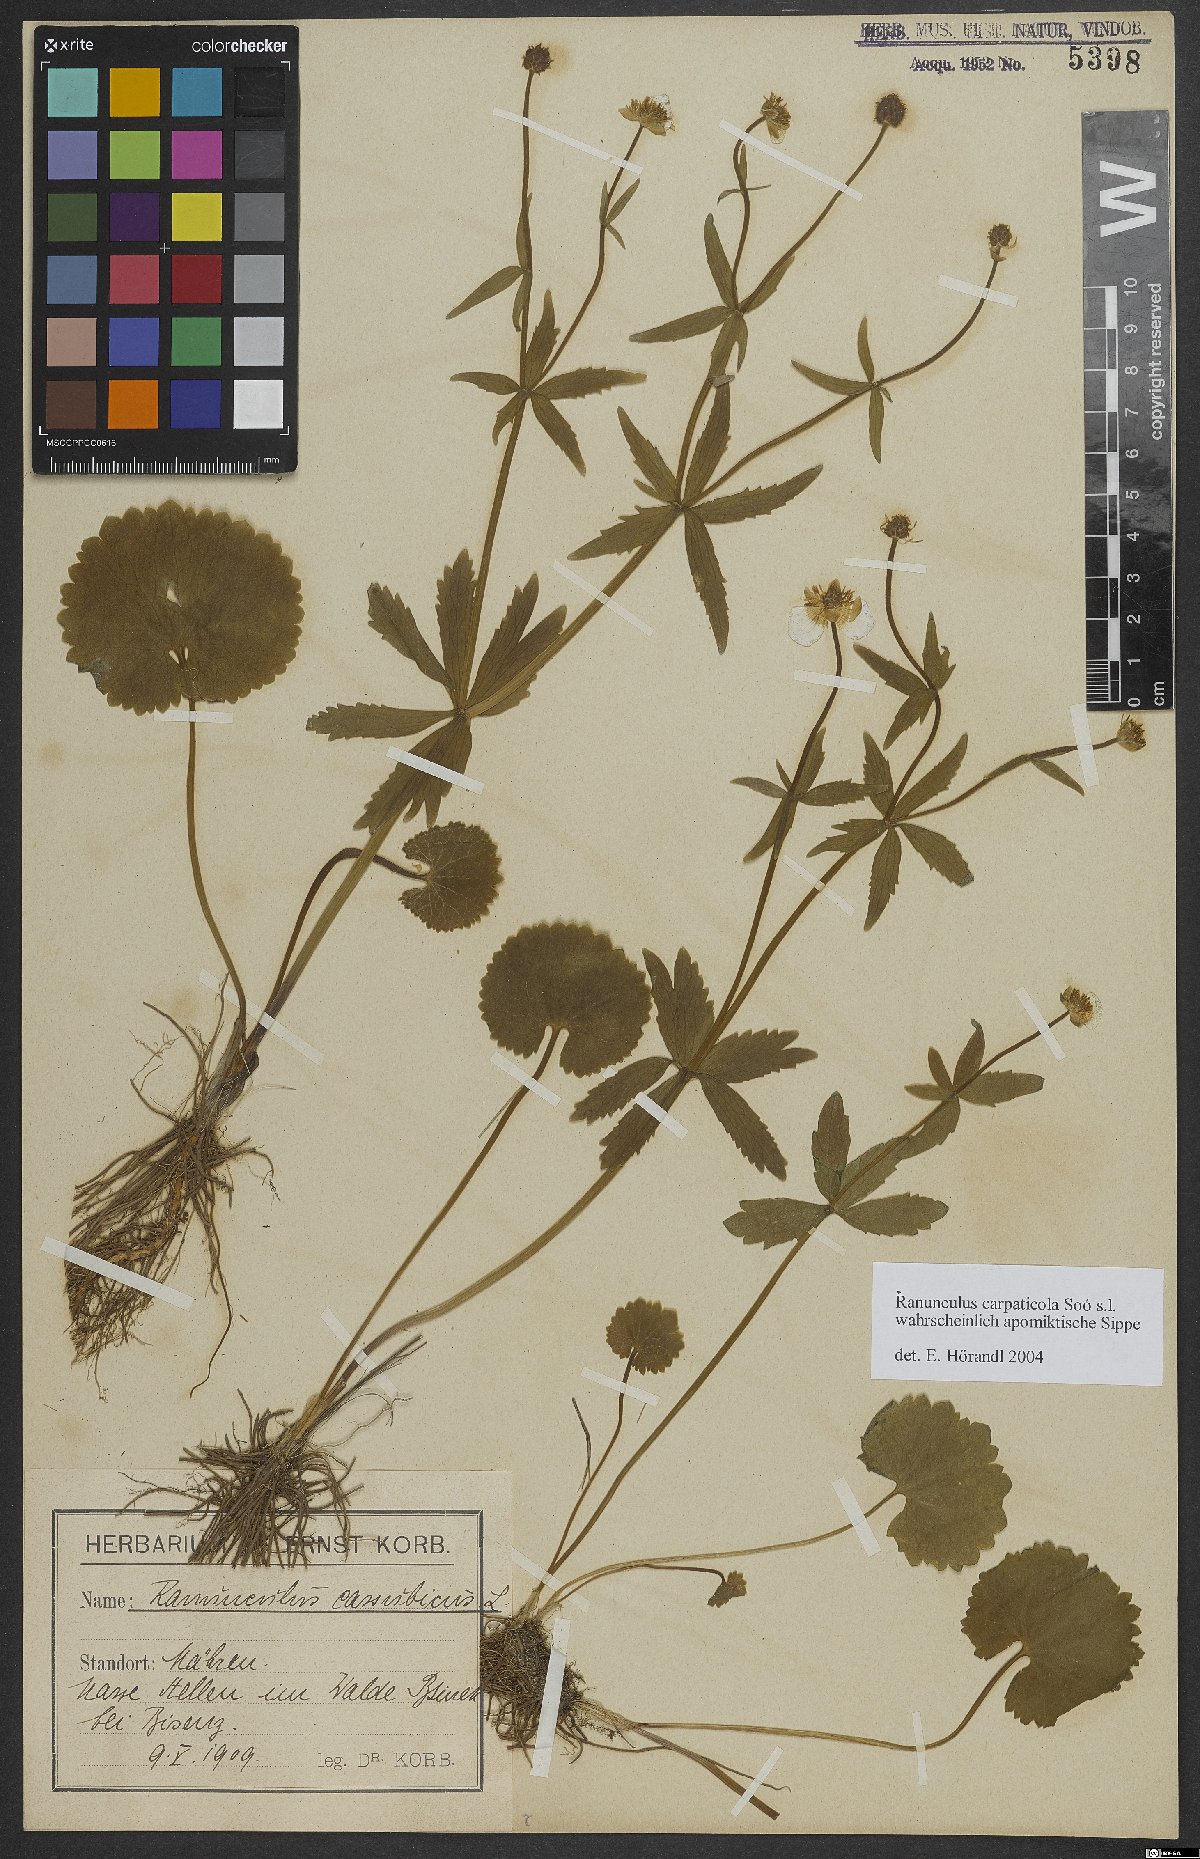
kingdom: Plantae
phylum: Tracheophyta
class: Magnoliopsida
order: Ranunculales
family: Ranunculaceae
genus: Ranunculus
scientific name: Ranunculus cassubicifolius
